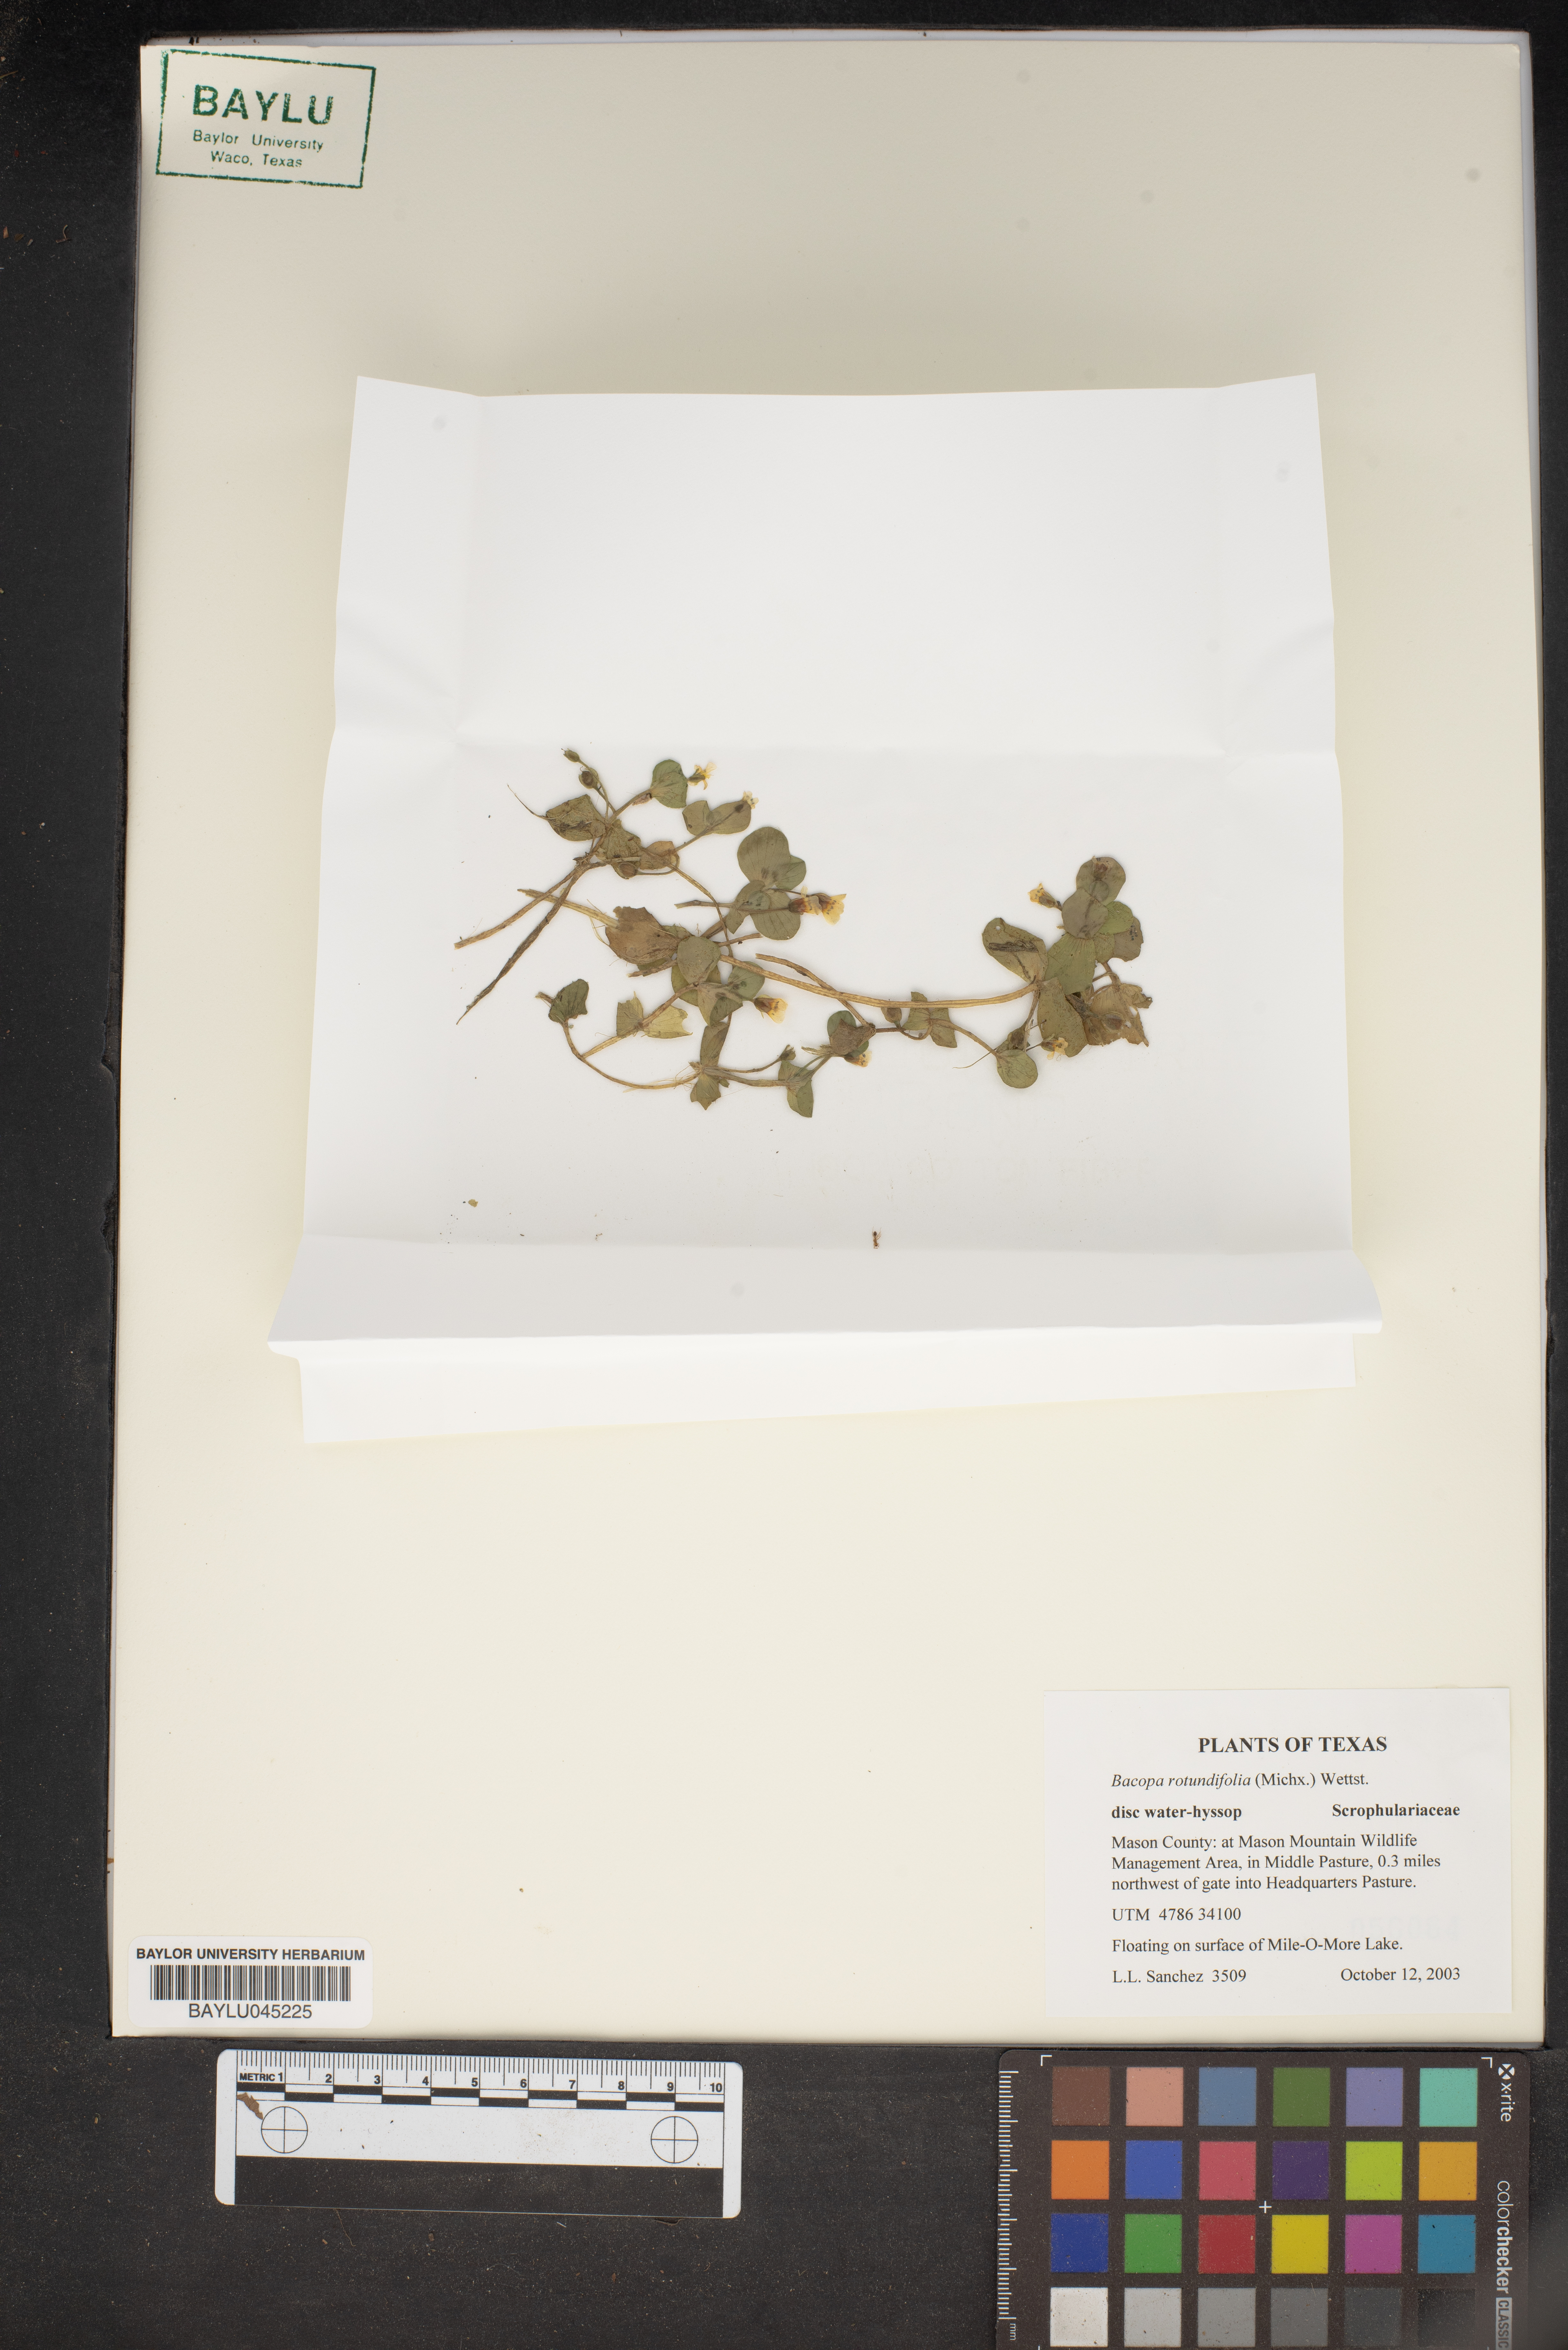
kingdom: Plantae
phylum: Tracheophyta
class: Magnoliopsida
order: Lamiales
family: Plantaginaceae
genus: Bacopa
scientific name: Bacopa rotundifolia
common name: Disc water hyssop
